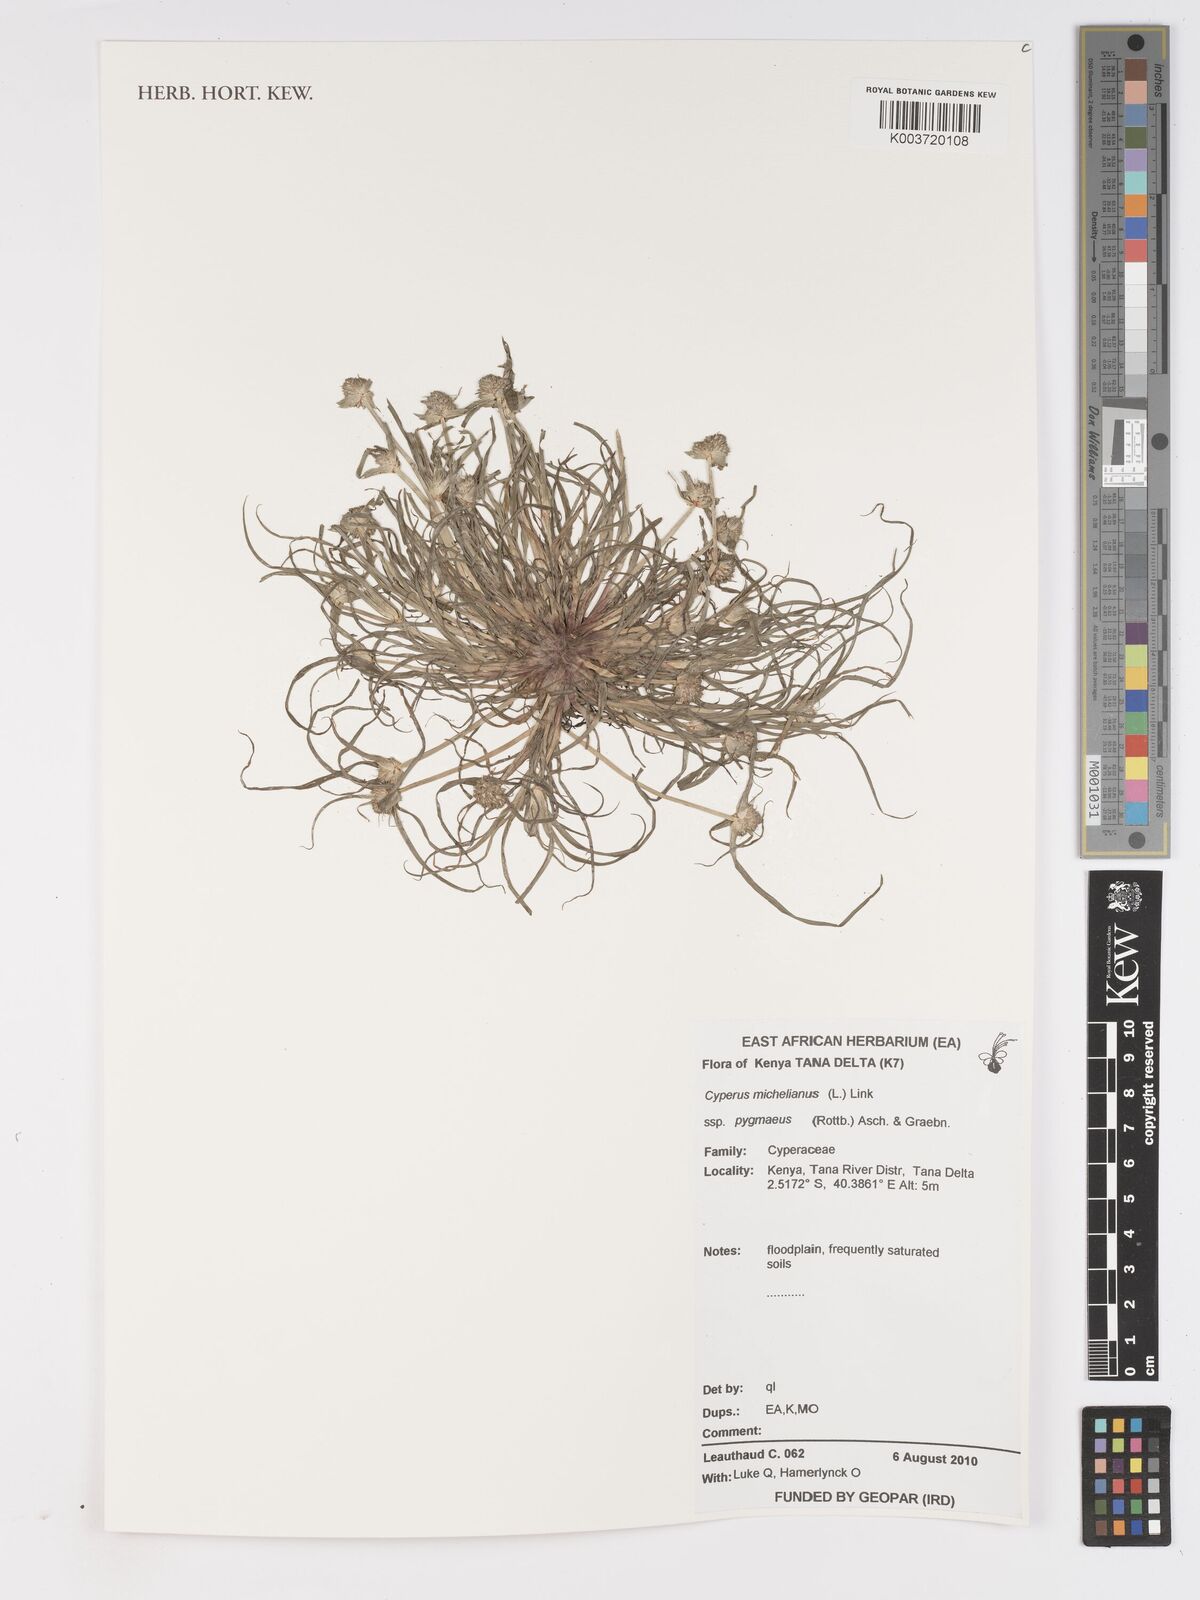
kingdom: Plantae
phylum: Tracheophyta
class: Liliopsida
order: Poales
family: Cyperaceae
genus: Cyperus
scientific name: Cyperus michelianus
